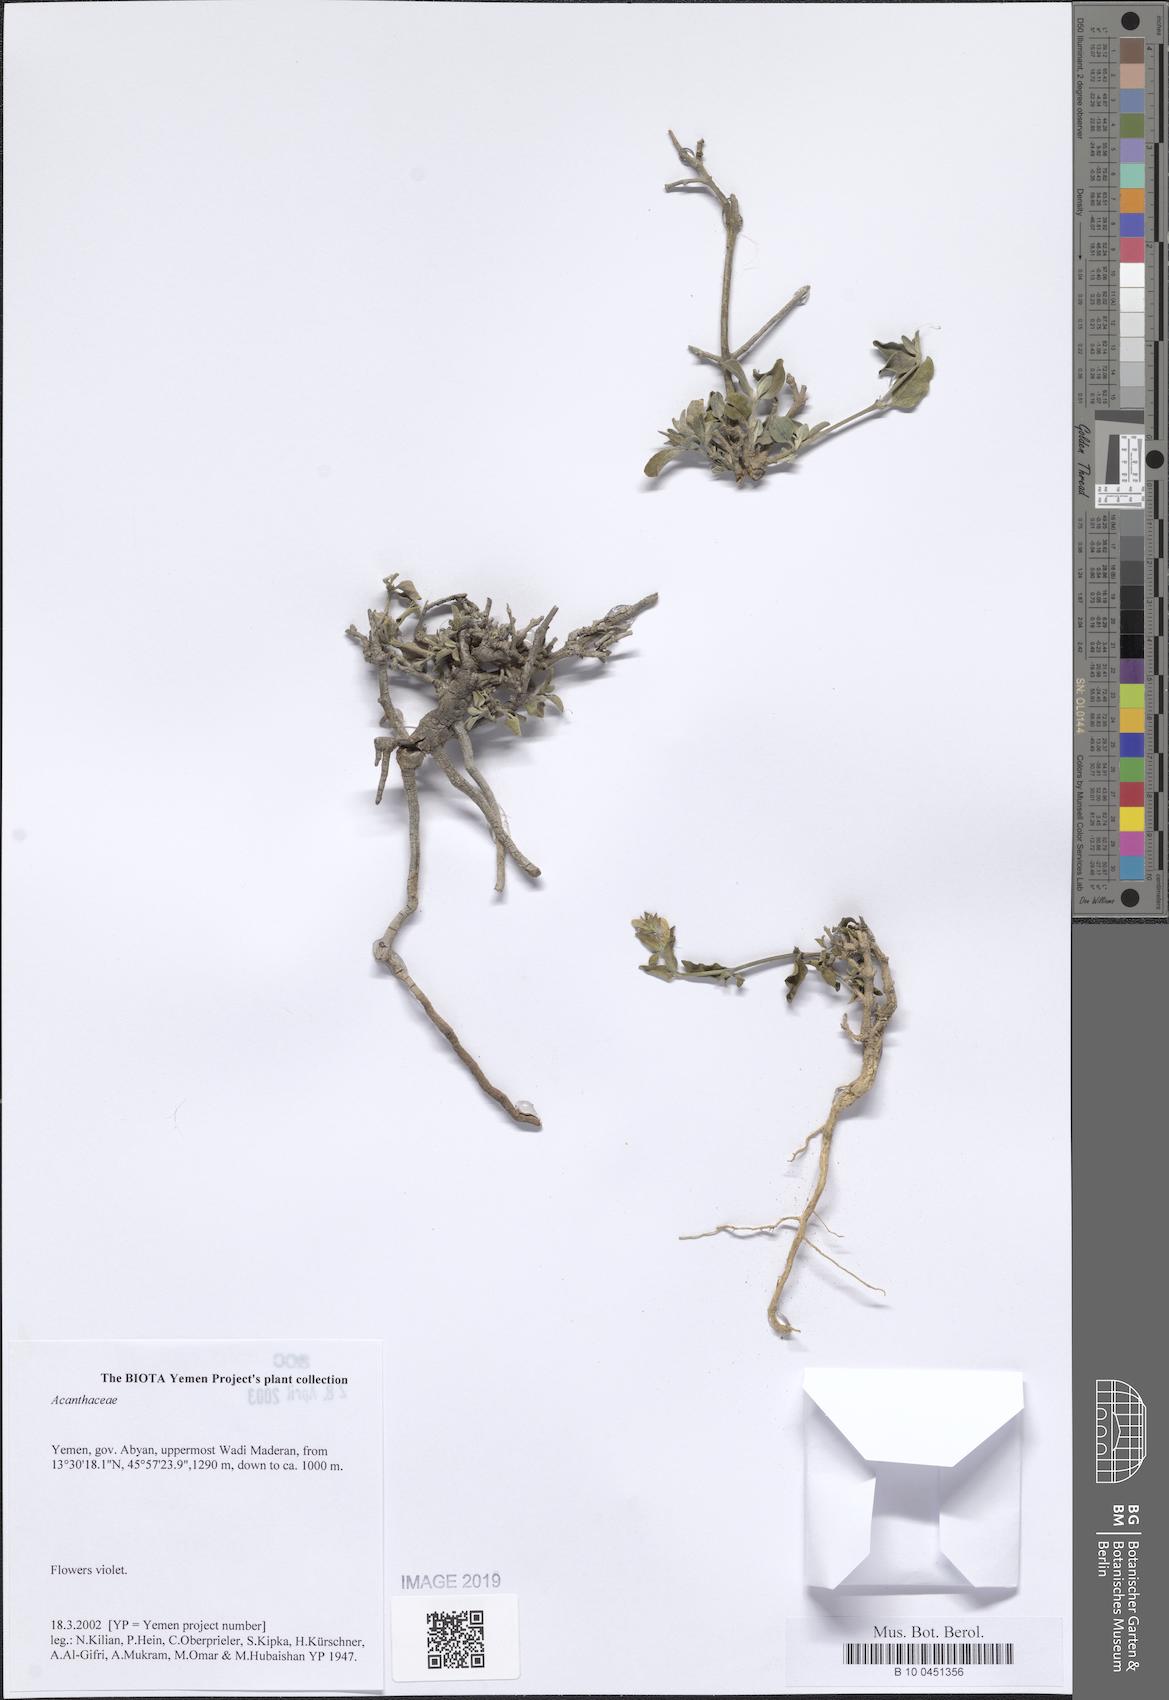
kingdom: Plantae
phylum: Tracheophyta
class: Magnoliopsida
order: Lamiales
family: Acanthaceae
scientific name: Acanthaceae
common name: Acanthaceae
